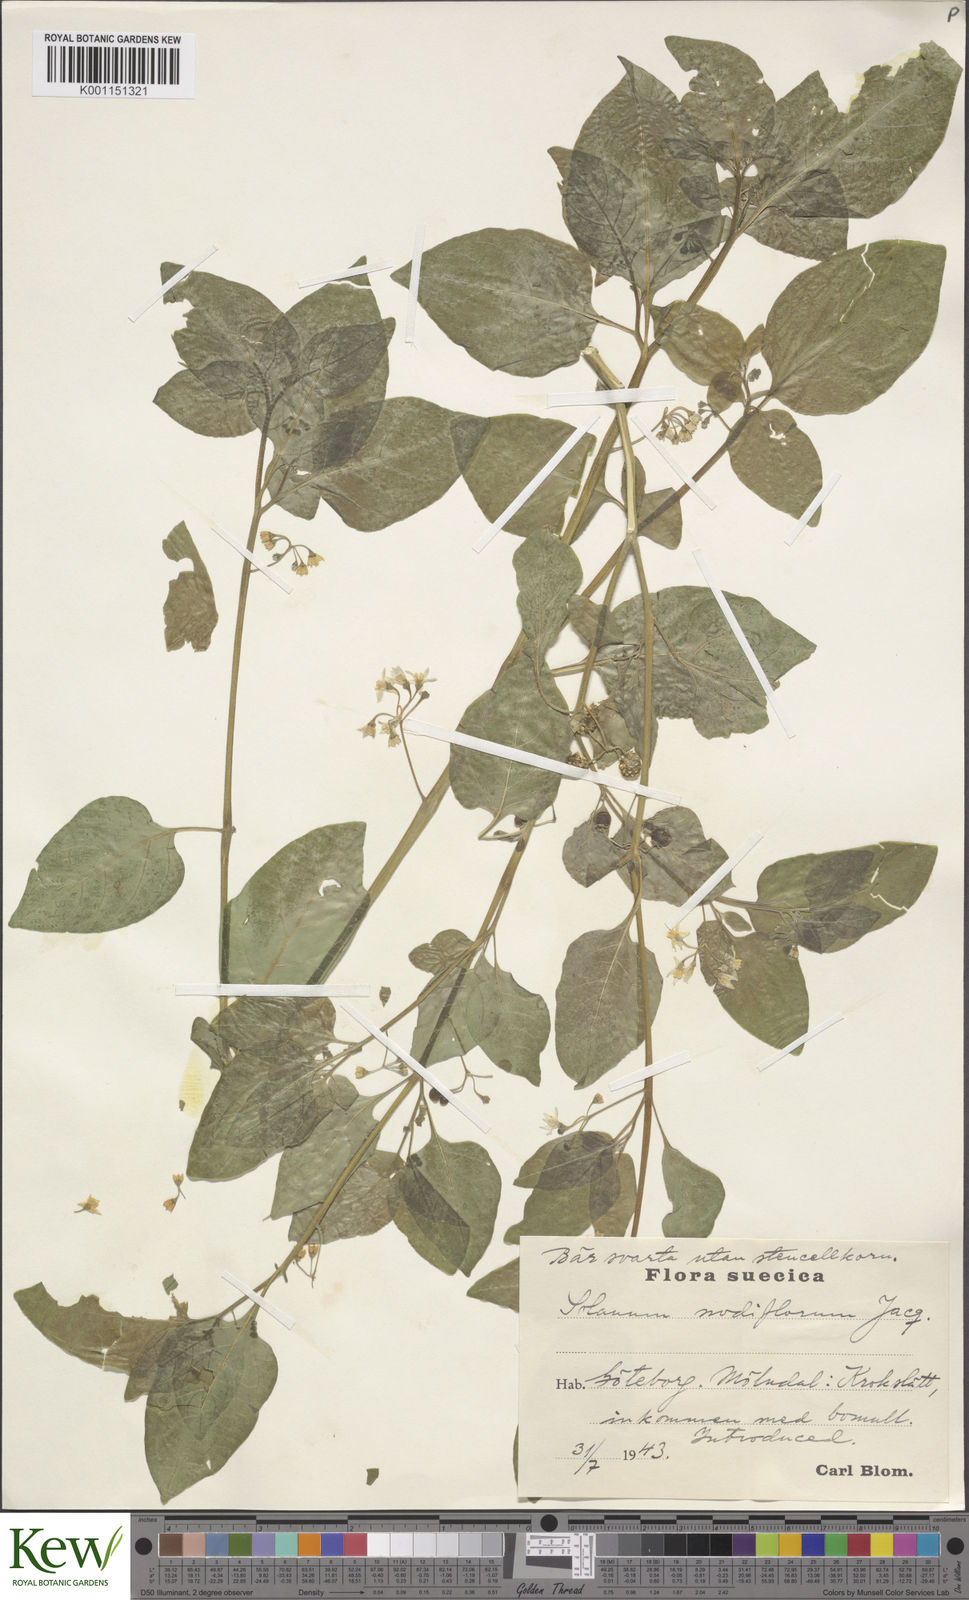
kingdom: Plantae
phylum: Tracheophyta
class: Magnoliopsida
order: Solanales
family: Solanaceae
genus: Solanum
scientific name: Solanum americanum
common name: American black nightshade
